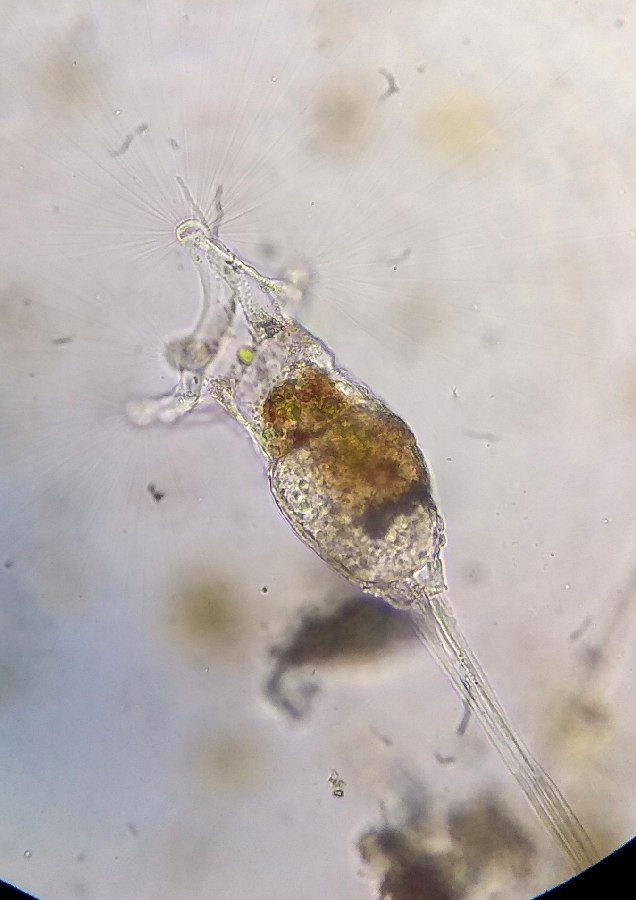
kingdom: Animalia
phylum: Rotifera
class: Eurotatoria
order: Collothecacea
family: Collothecidae
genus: Collotheca
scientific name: Collotheca ornata
